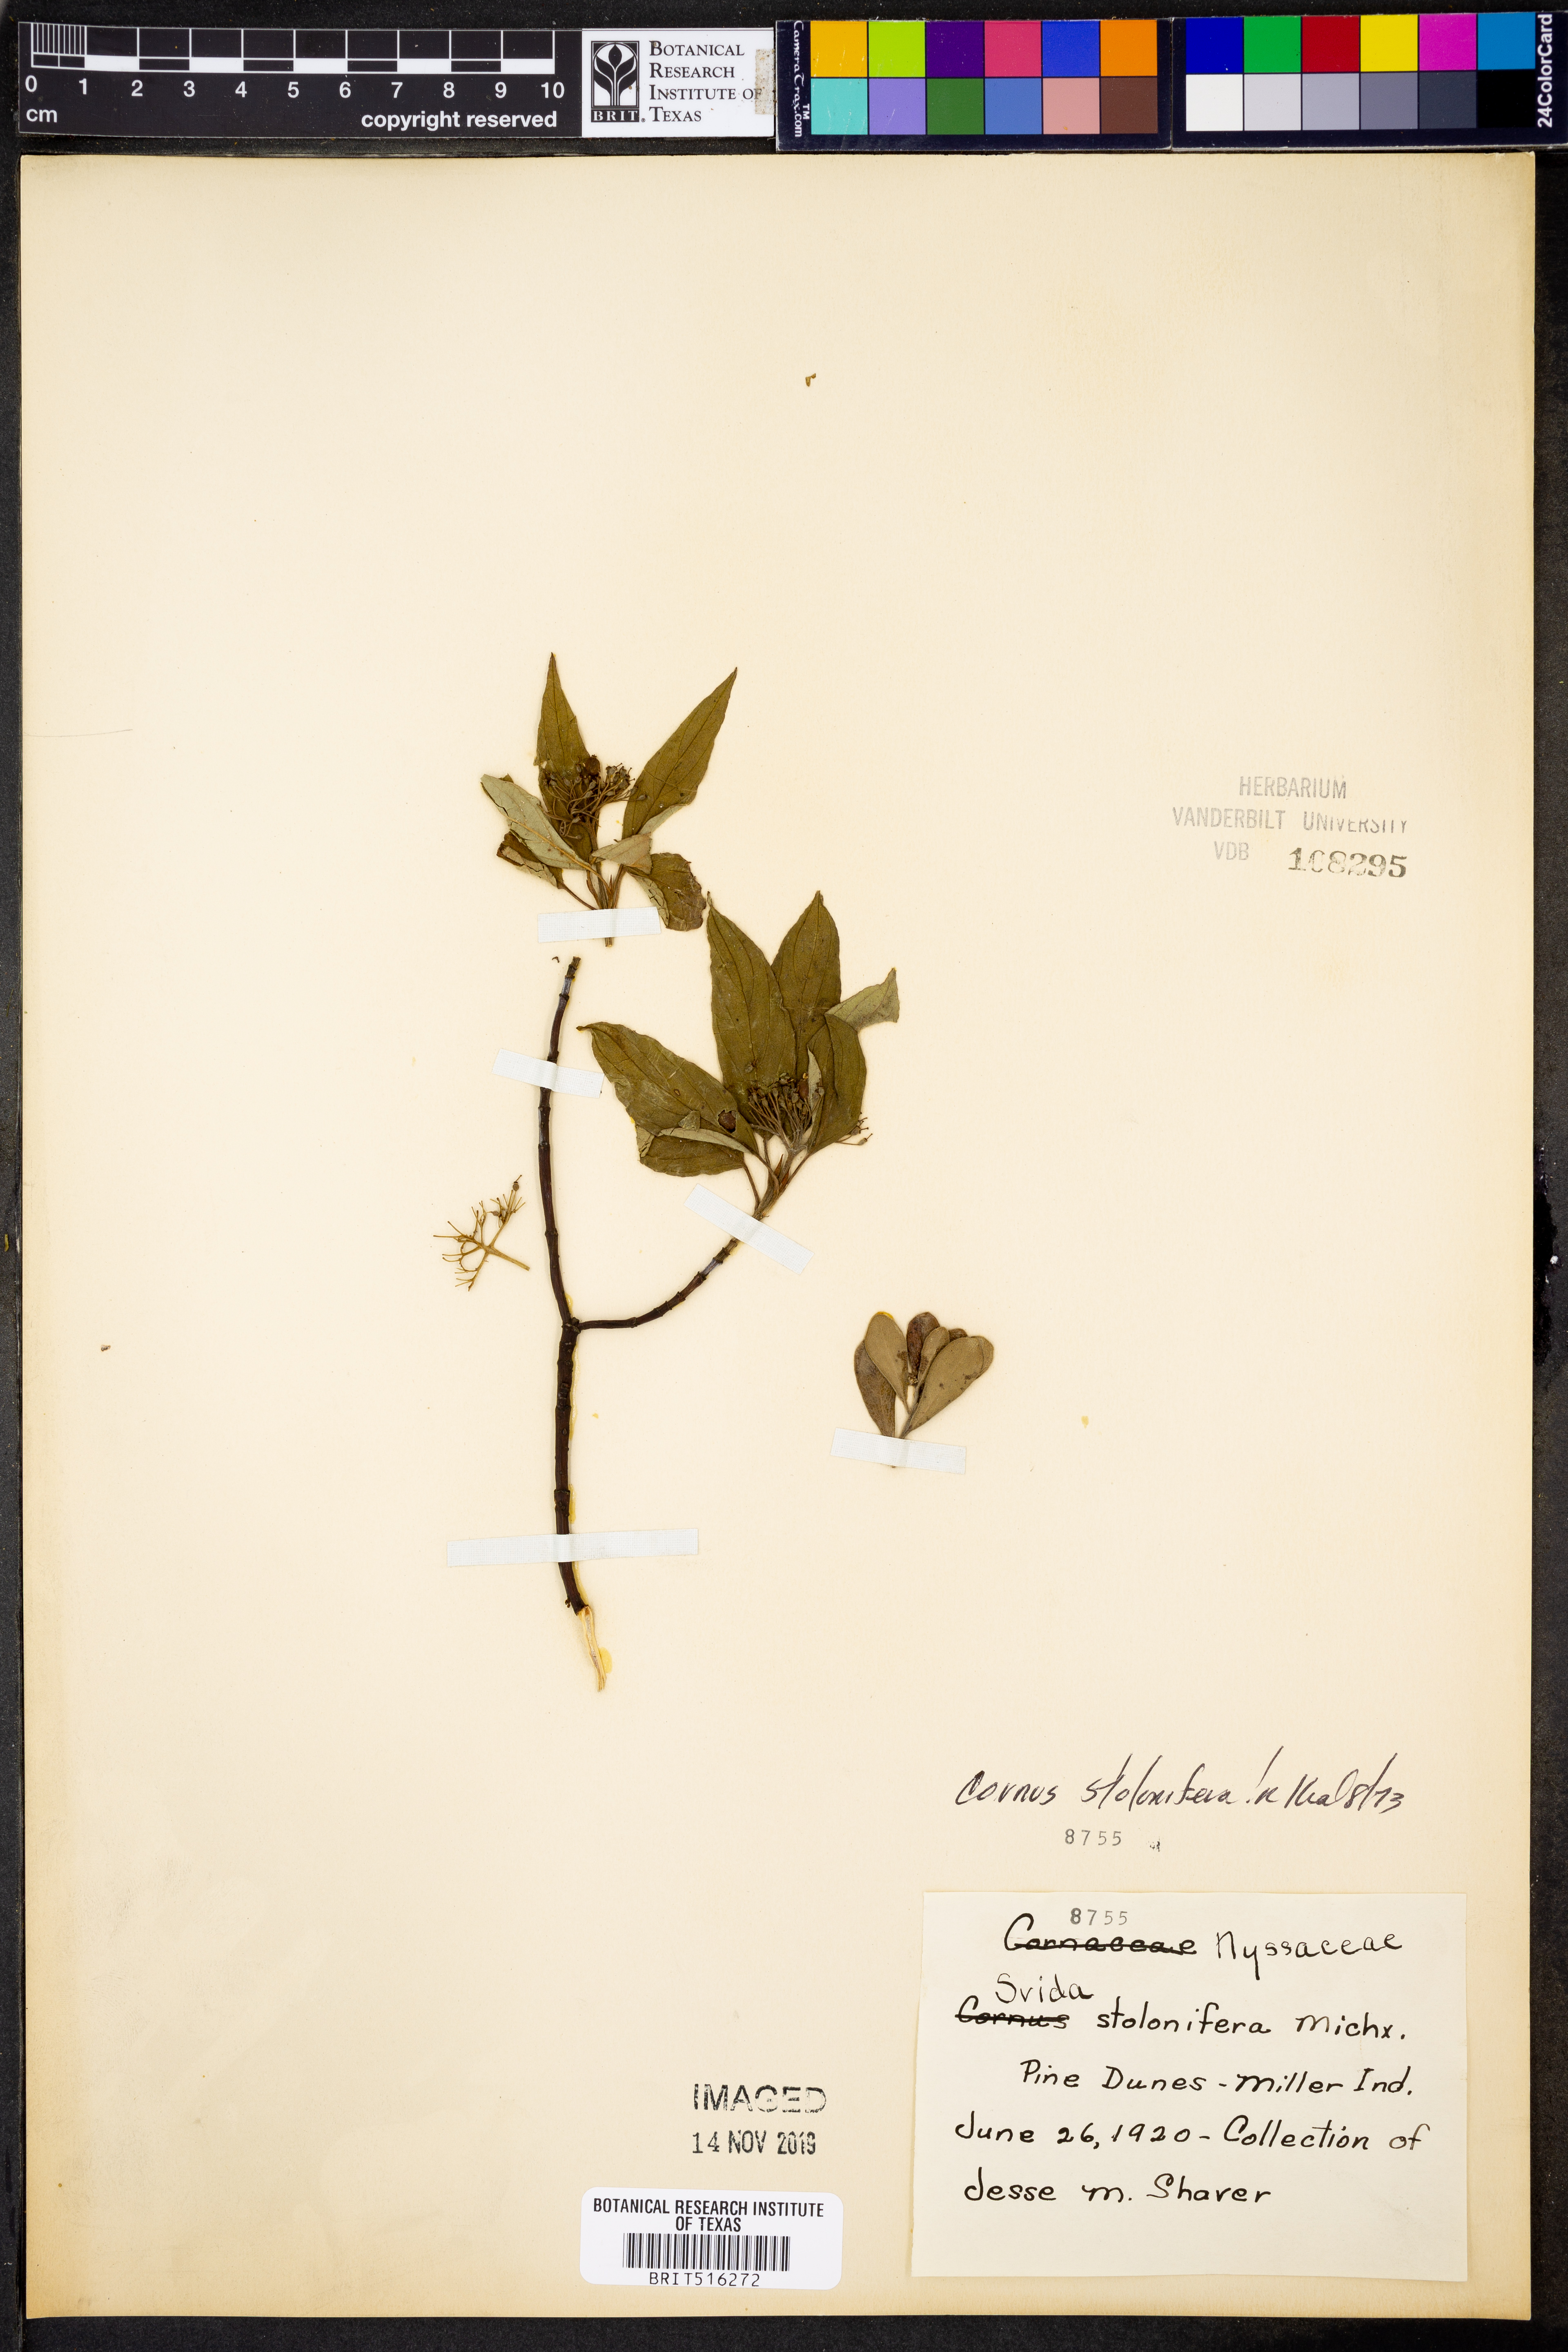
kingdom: Plantae
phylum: Tracheophyta
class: Magnoliopsida
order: Cornales
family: Cornaceae
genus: Cornus
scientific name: Cornus sericea
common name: Red-osier dogwood
